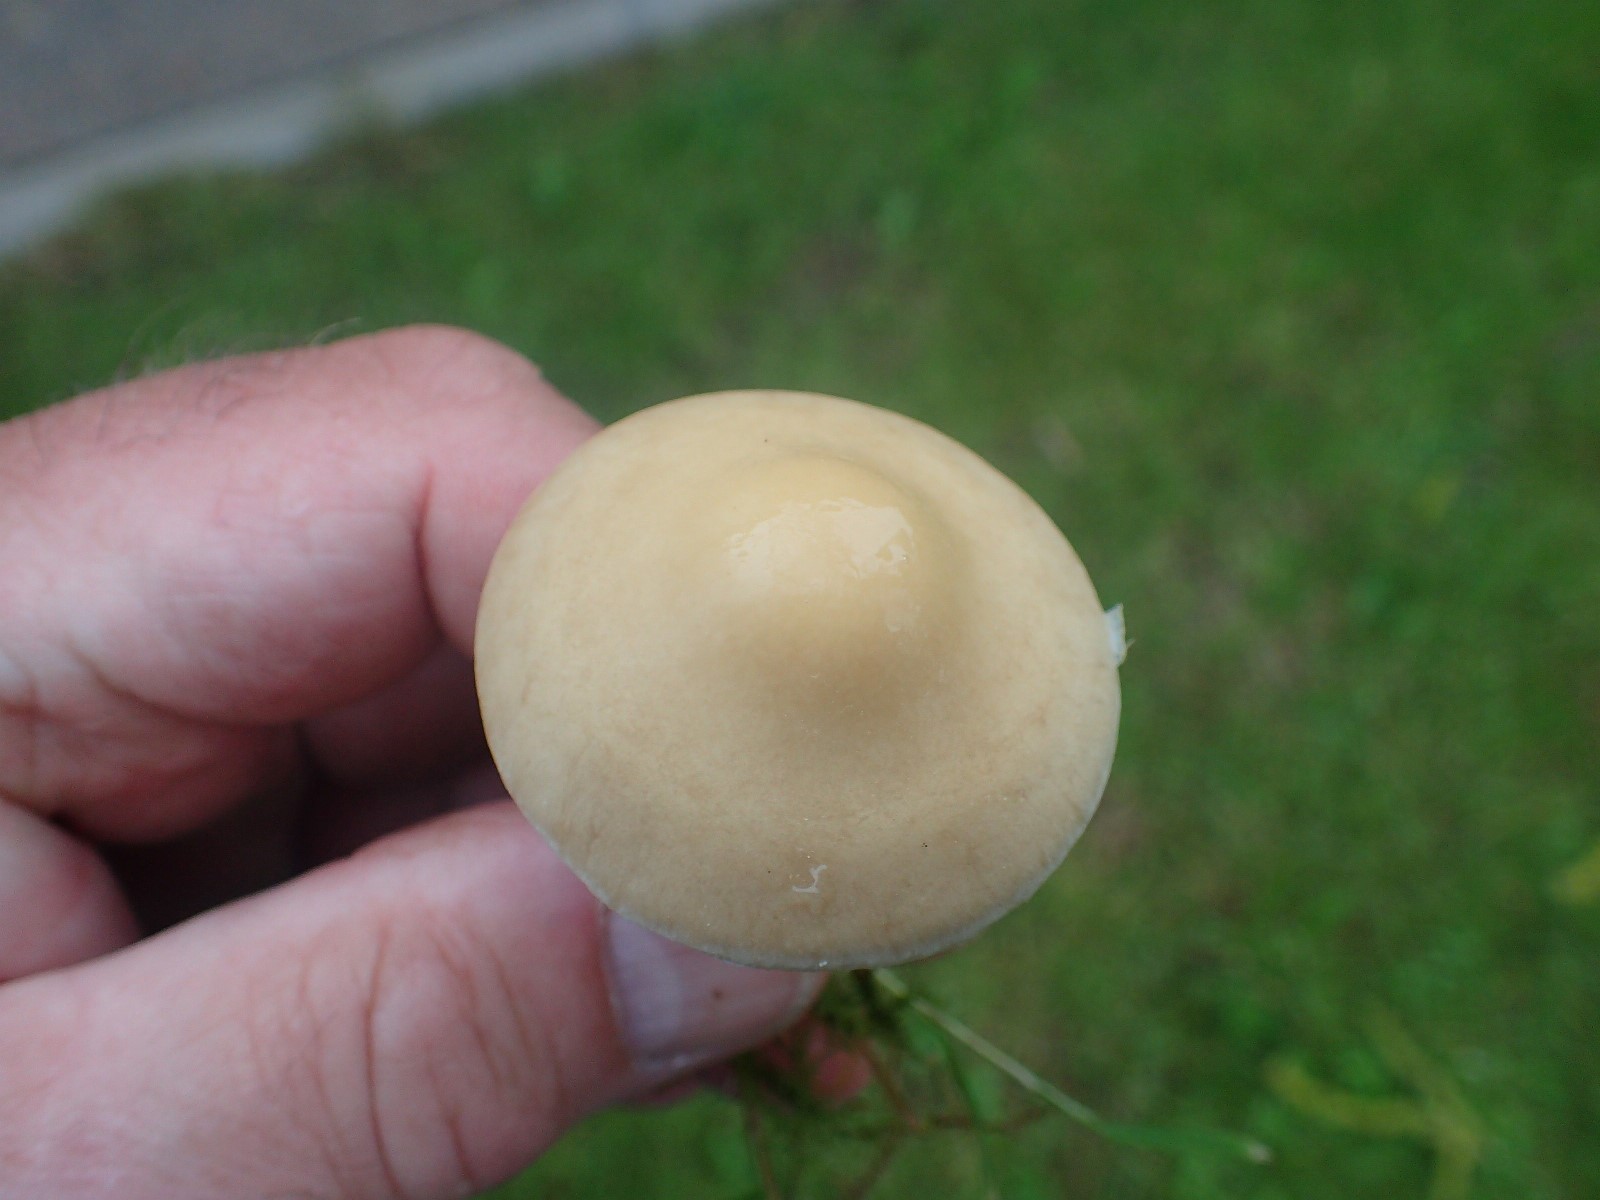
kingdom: Fungi
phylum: Basidiomycota
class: Agaricomycetes
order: Agaricales
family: Strophariaceae
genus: Agrocybe
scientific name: Agrocybe praecox
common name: tidlig agerhat
